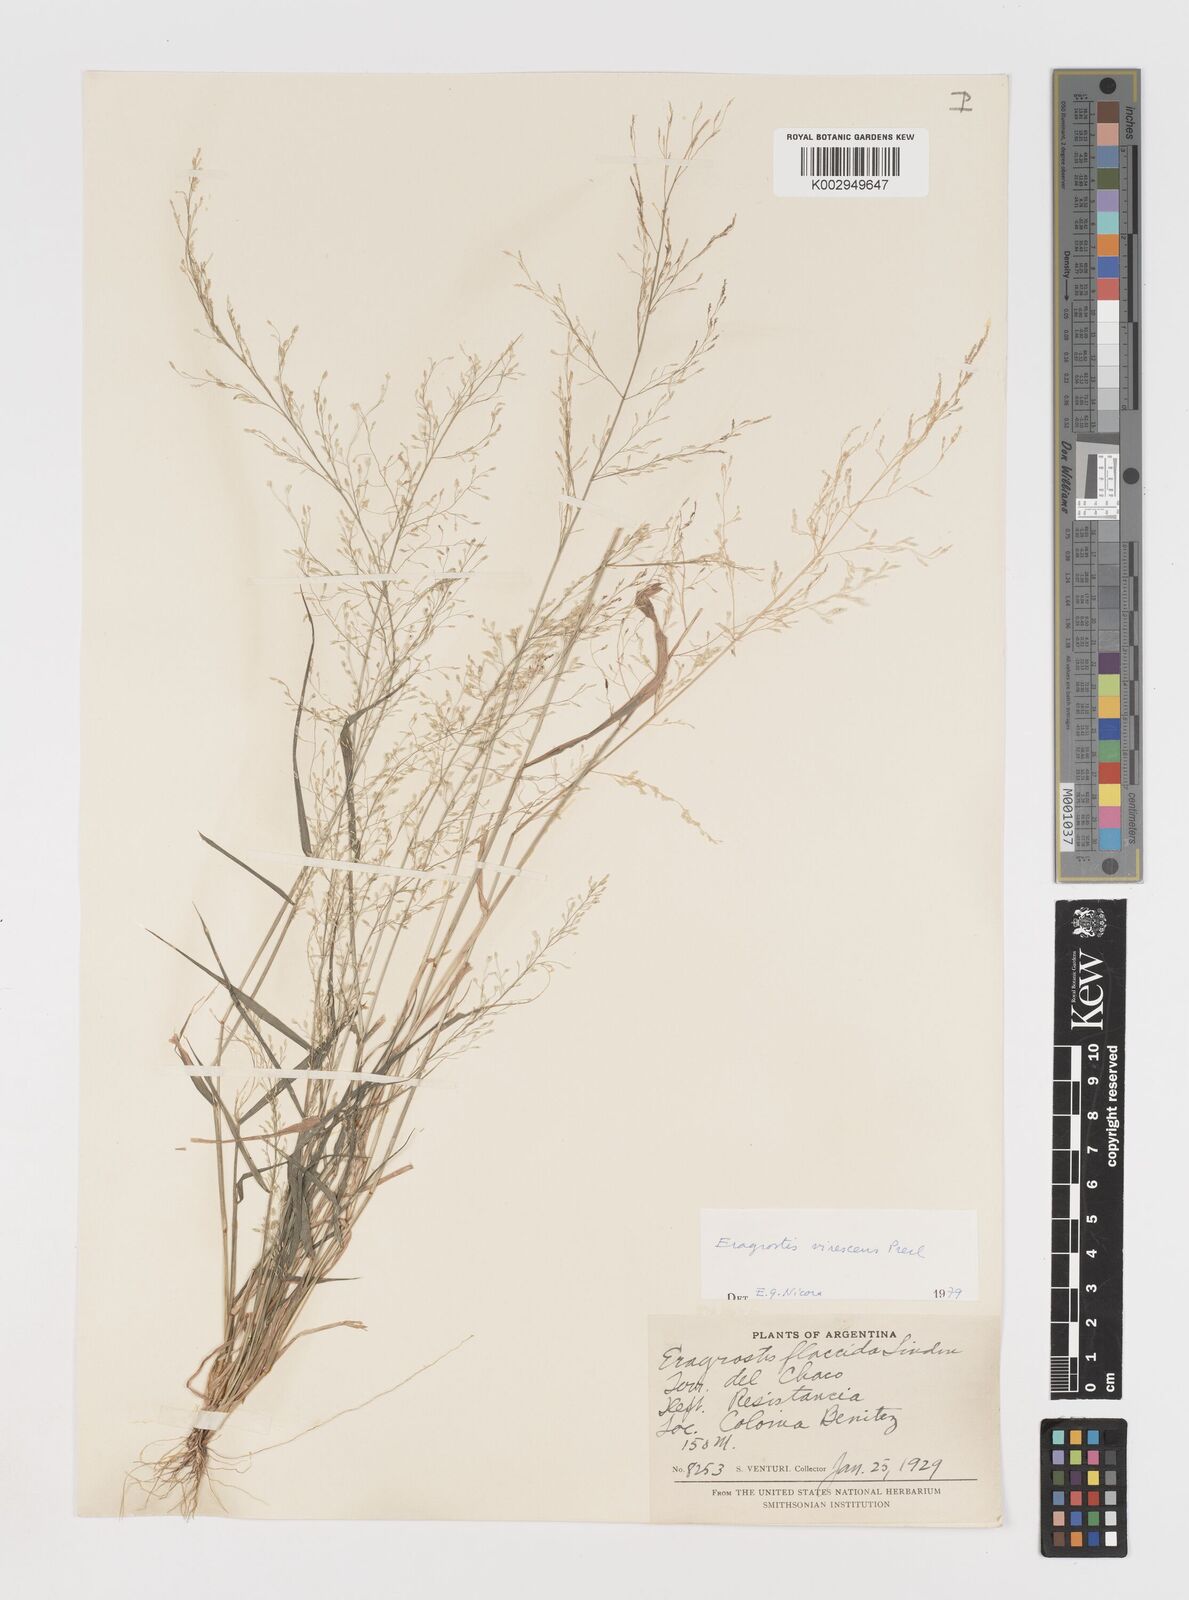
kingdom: Plantae
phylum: Tracheophyta
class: Liliopsida
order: Poales
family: Poaceae
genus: Eragrostis
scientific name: Eragrostis mexicana
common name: Mexican love grass
